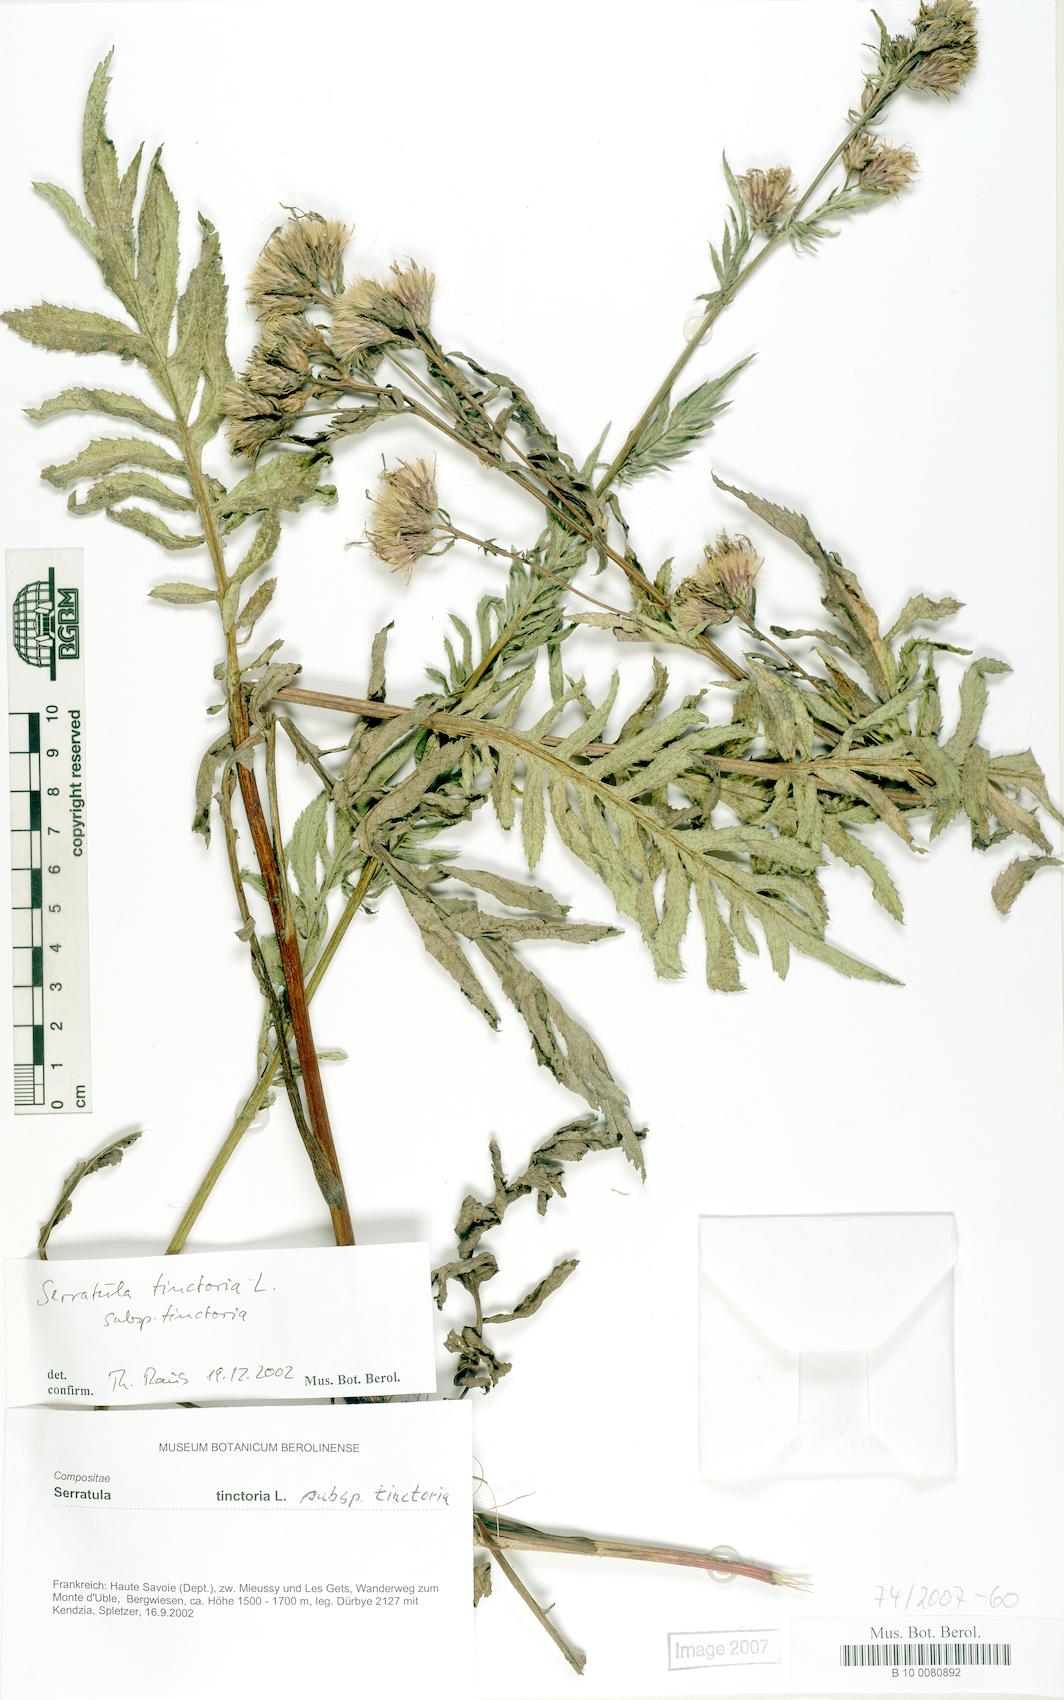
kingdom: Plantae
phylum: Tracheophyta
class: Magnoliopsida
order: Asterales
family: Asteraceae
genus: Serratula
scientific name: Serratula tinctoria
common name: Saw-wort
